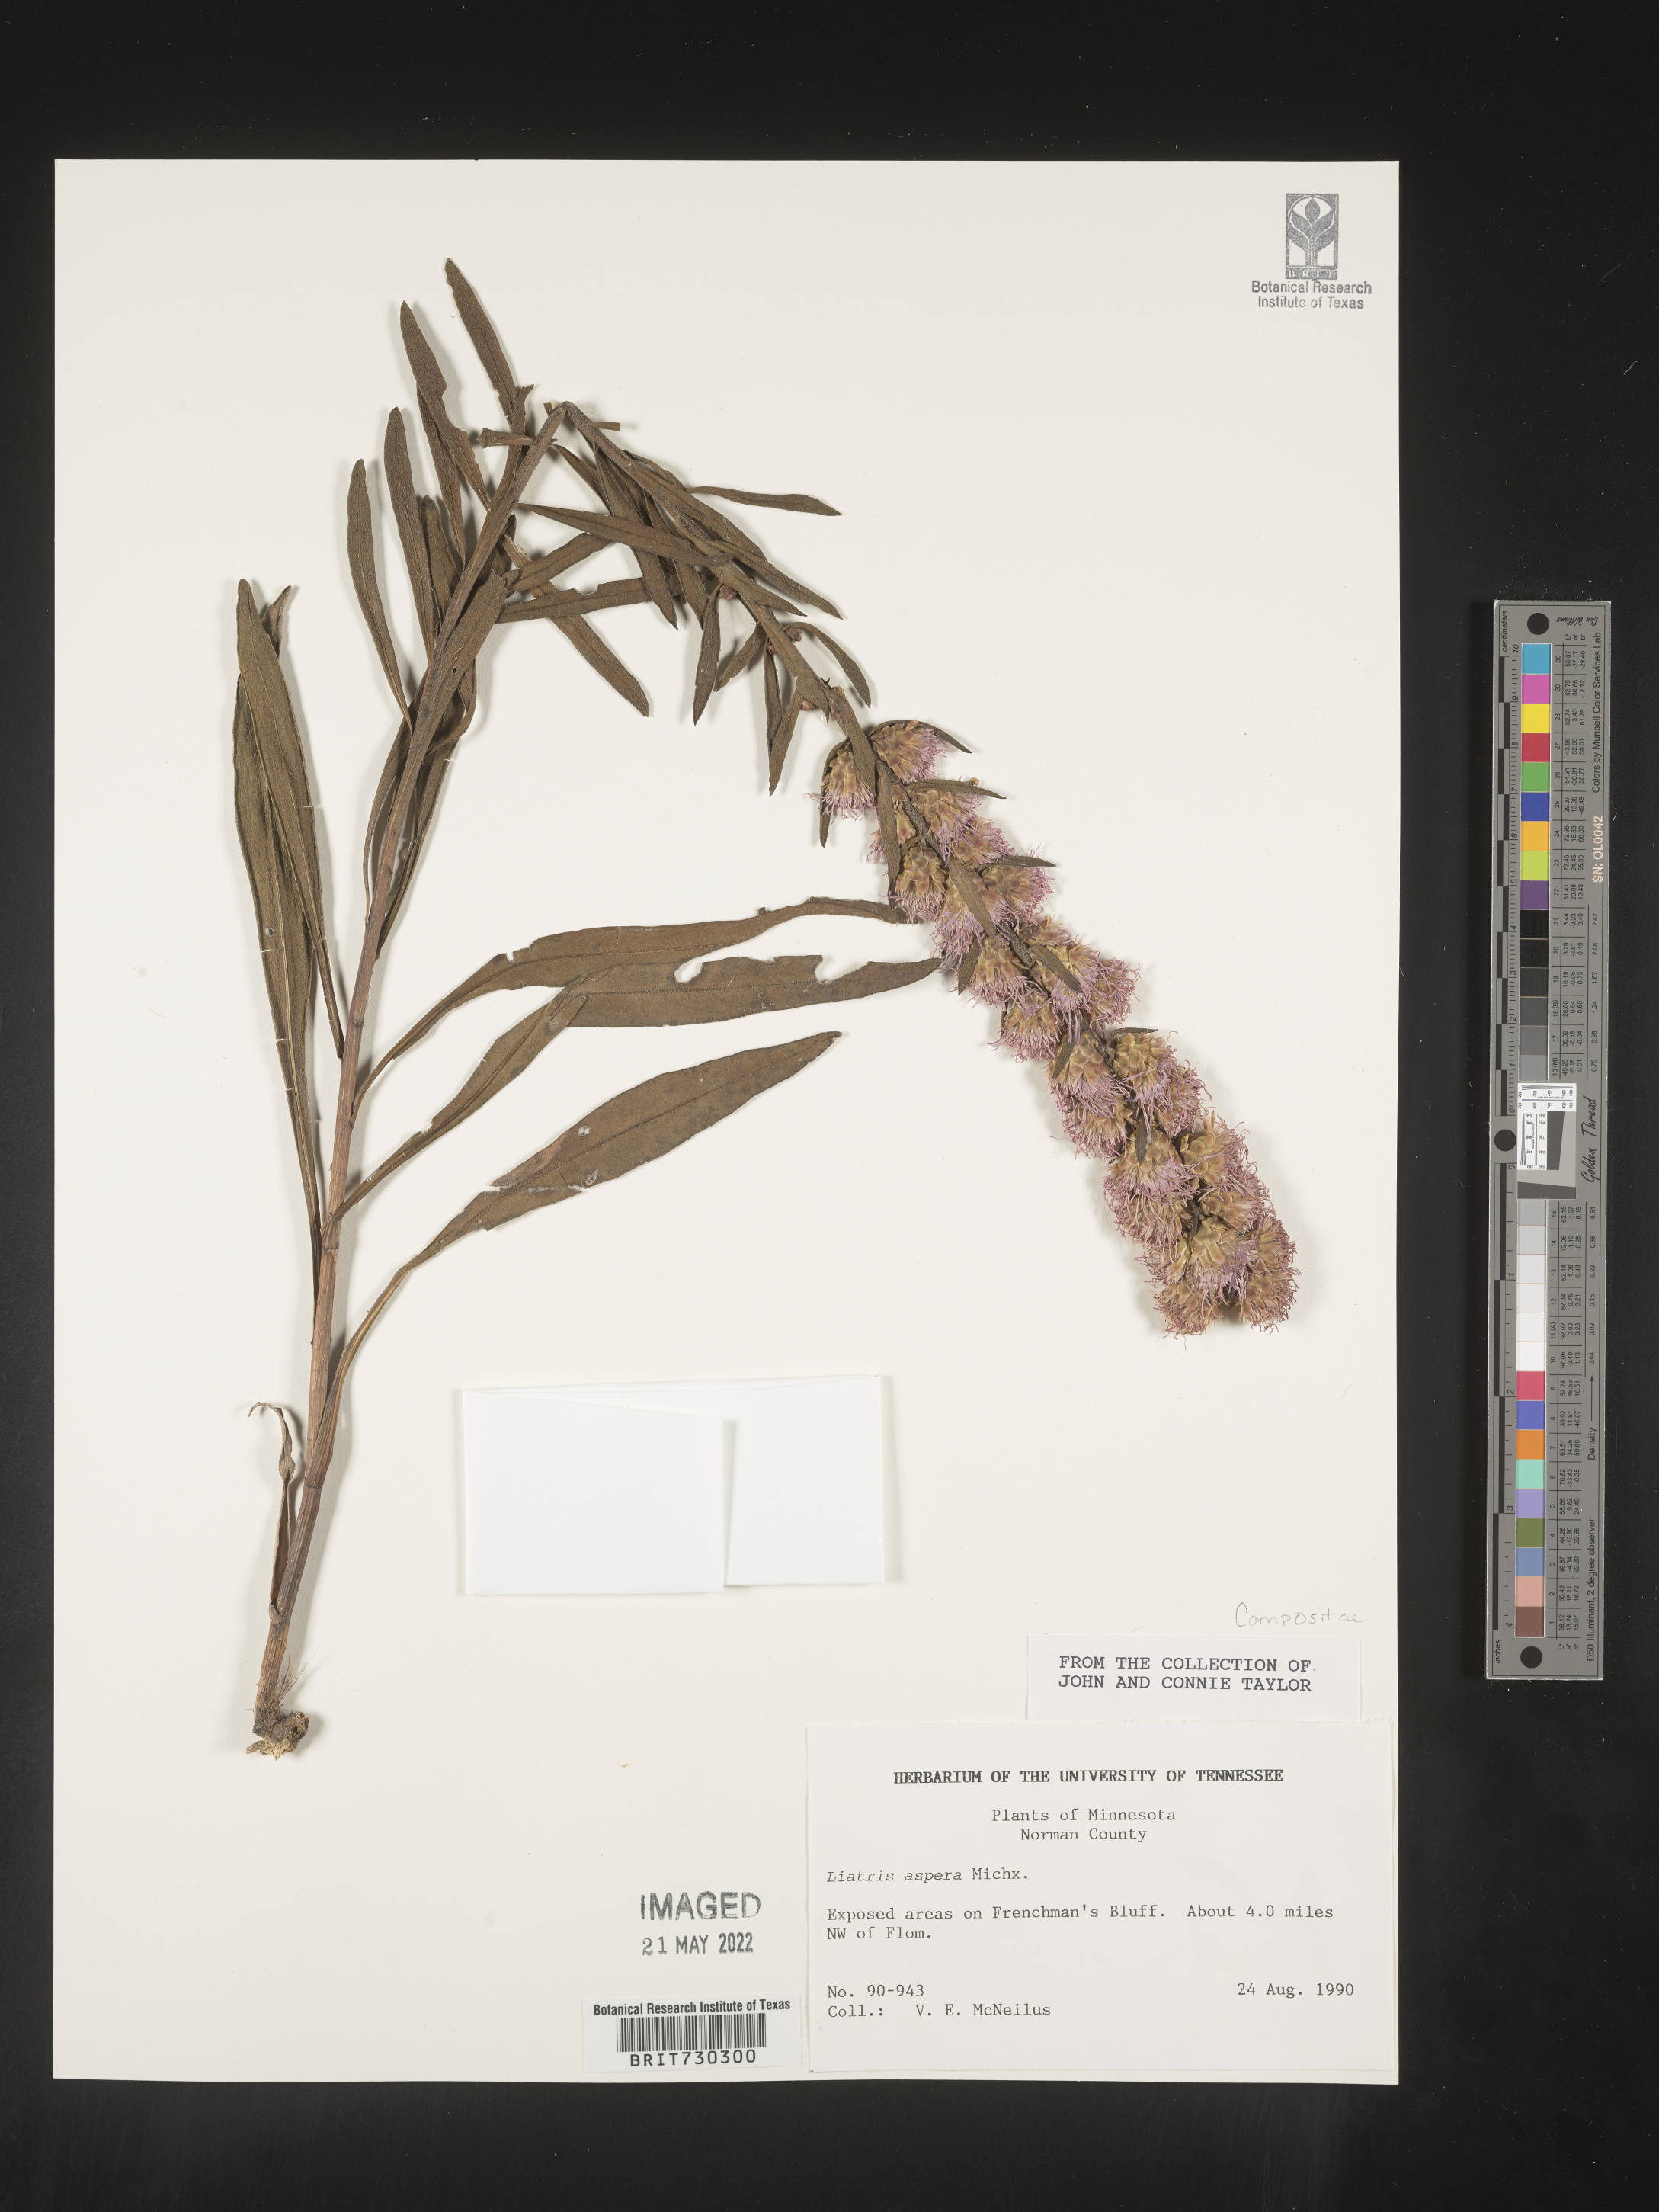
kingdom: Plantae
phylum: Tracheophyta
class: Magnoliopsida
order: Asterales
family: Asteraceae
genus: Liatris
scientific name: Liatris aspera
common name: Lacerate blazing-star
